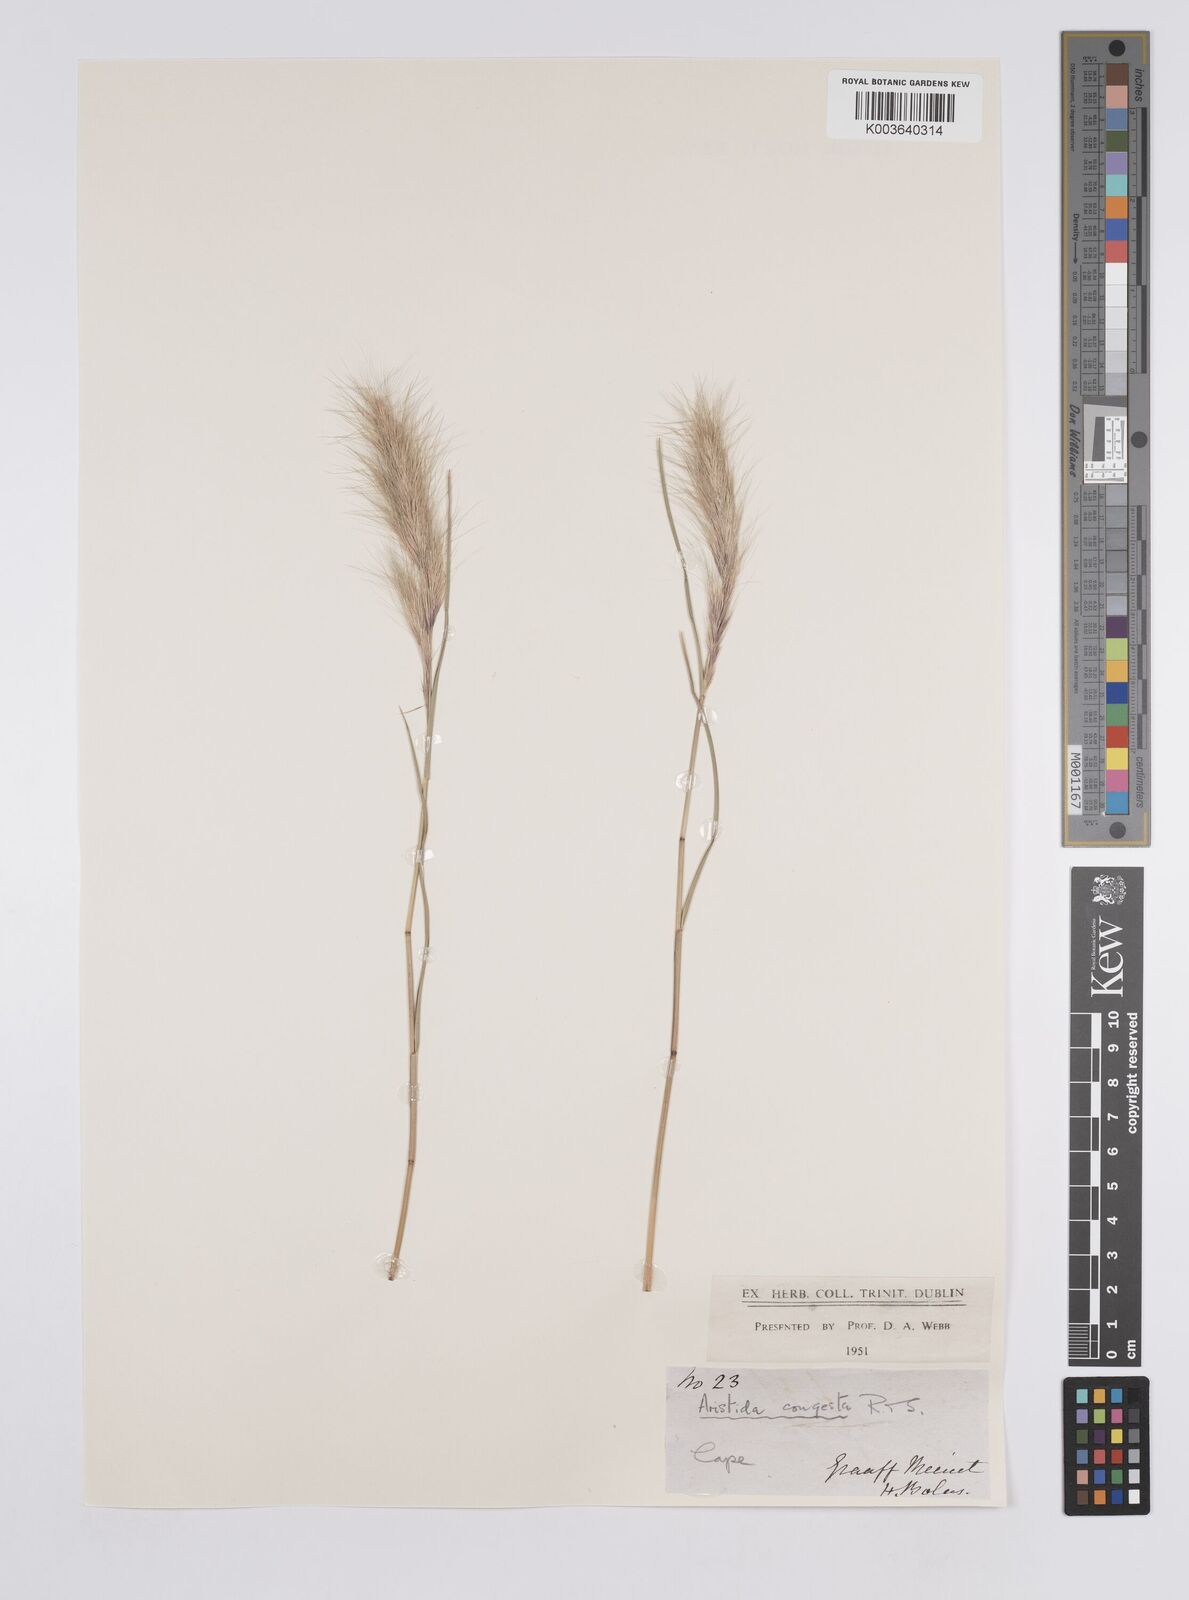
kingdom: Plantae
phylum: Tracheophyta
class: Liliopsida
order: Poales
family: Poaceae
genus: Aristida
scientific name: Aristida congesta
